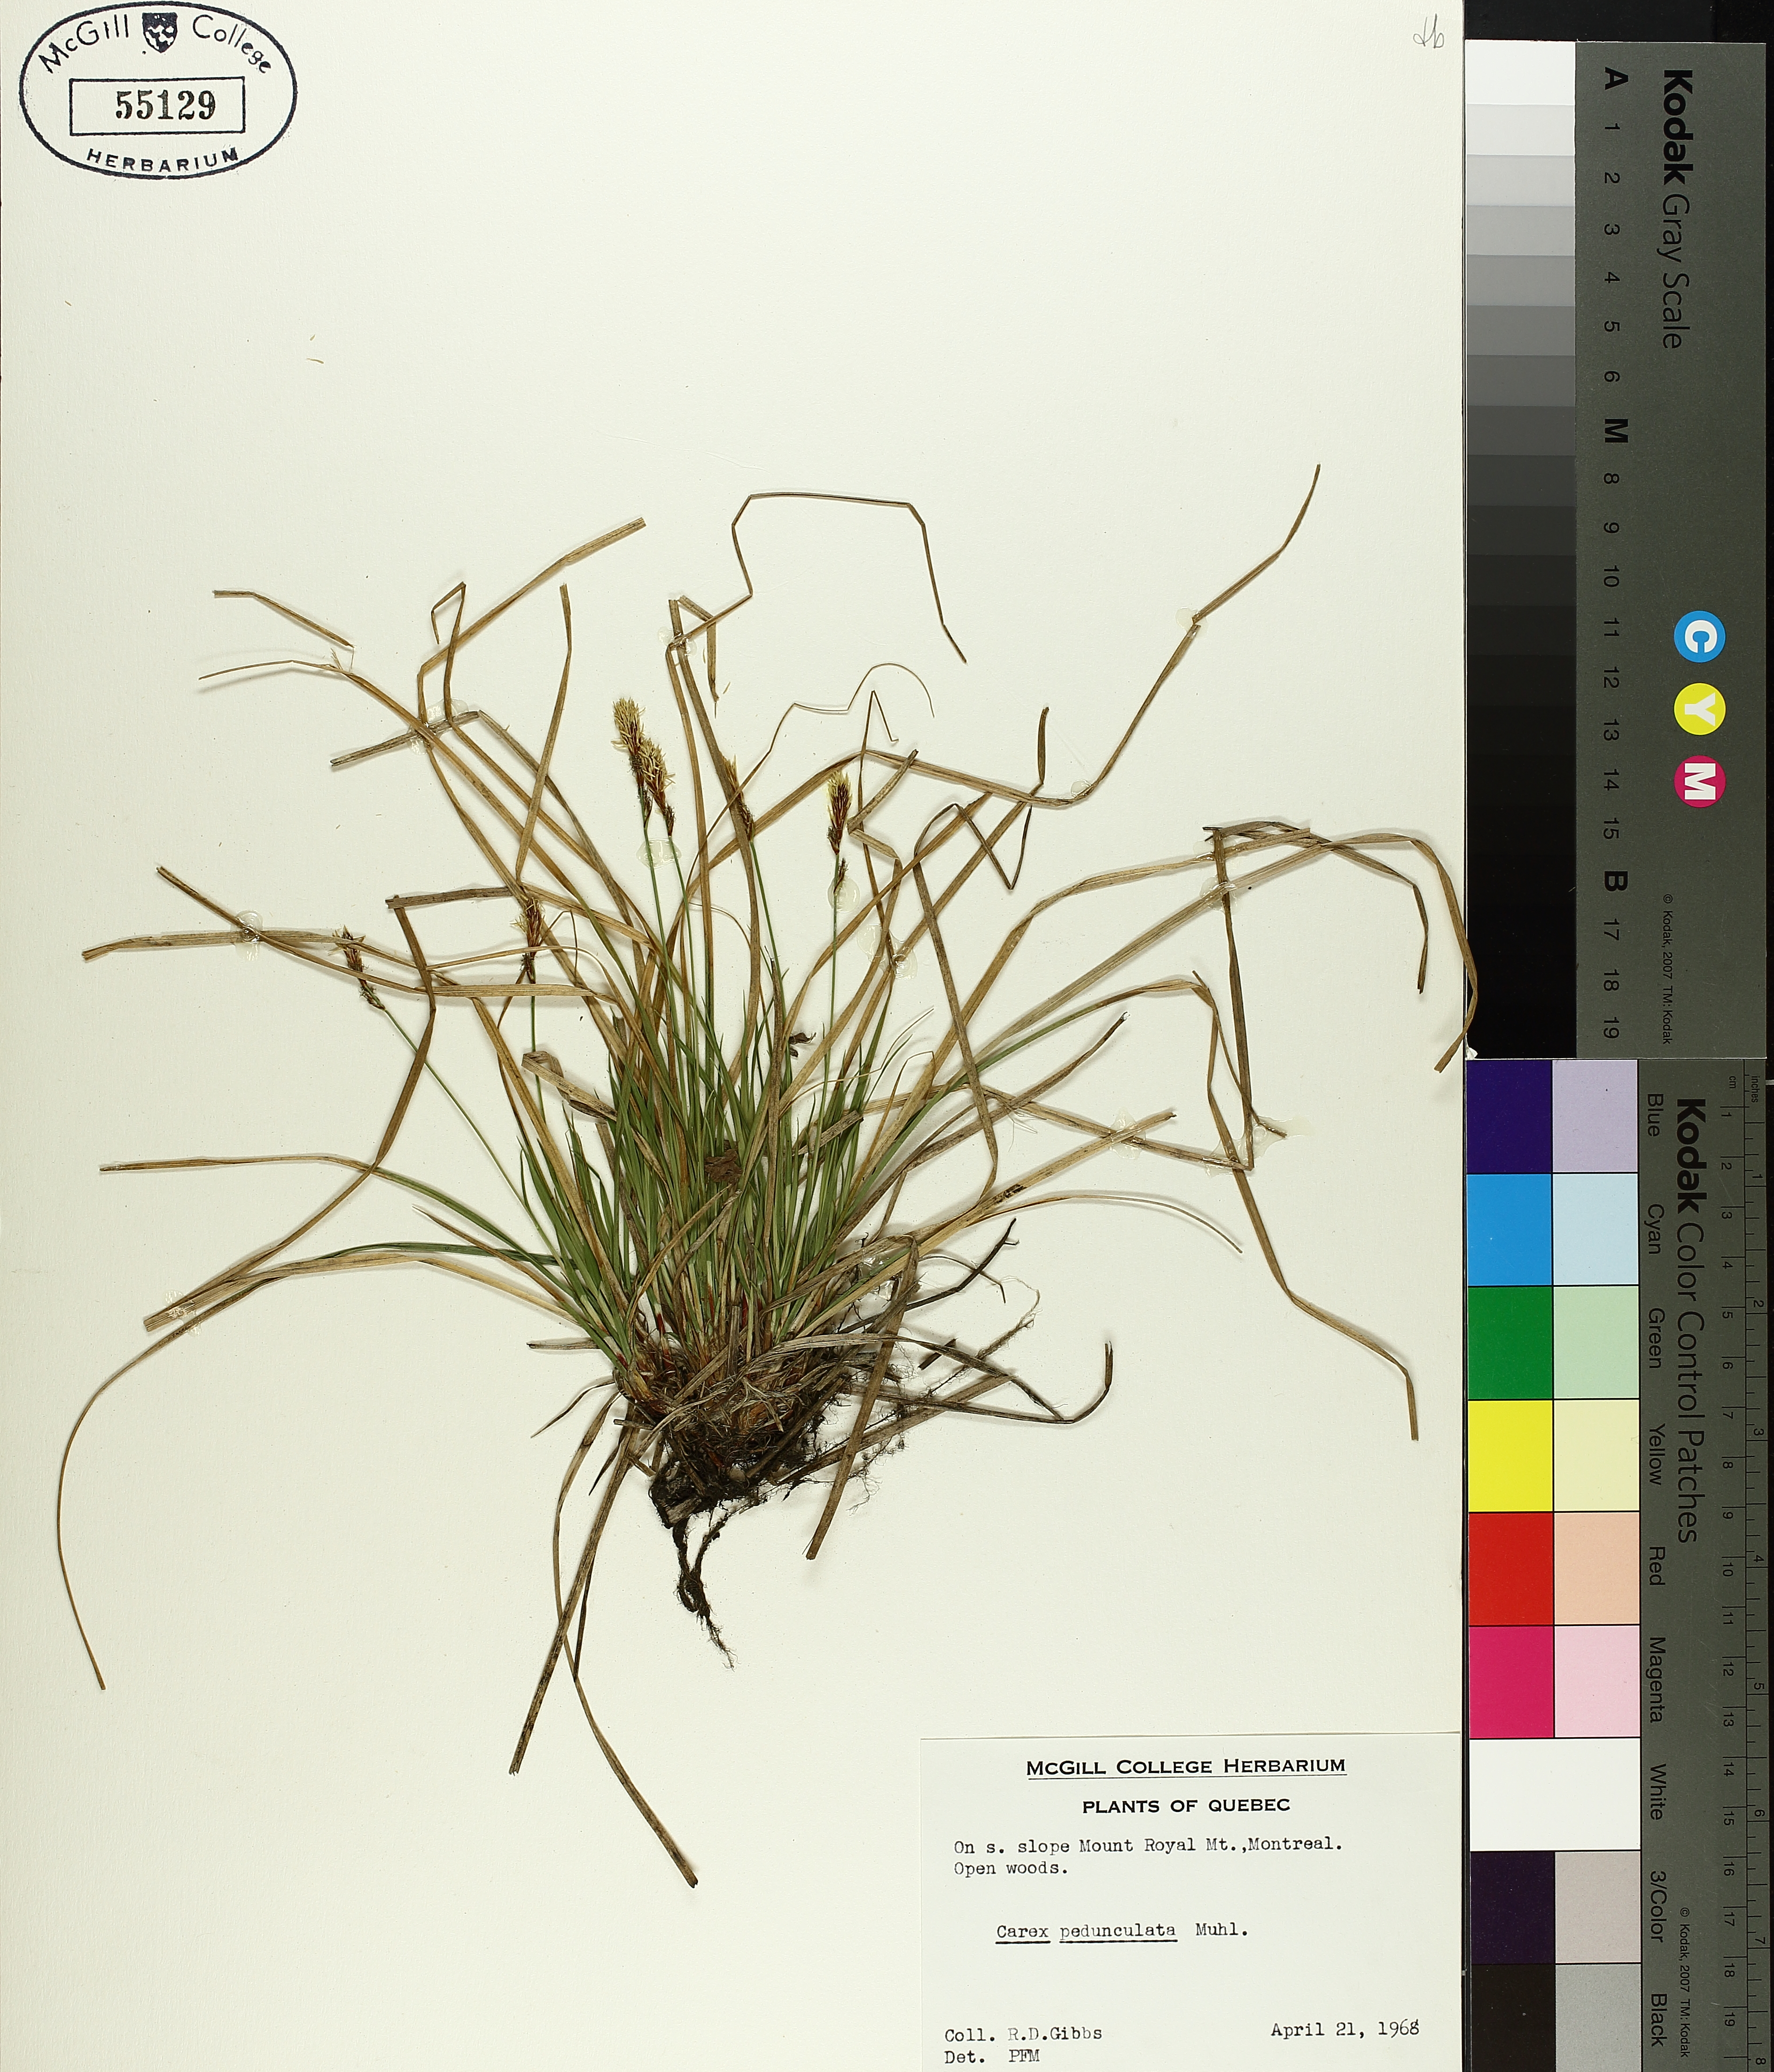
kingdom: Plantae
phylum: Tracheophyta
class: Liliopsida
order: Poales
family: Cyperaceae
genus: Carex
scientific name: Carex pedunculata
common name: Pedunculate sedge
